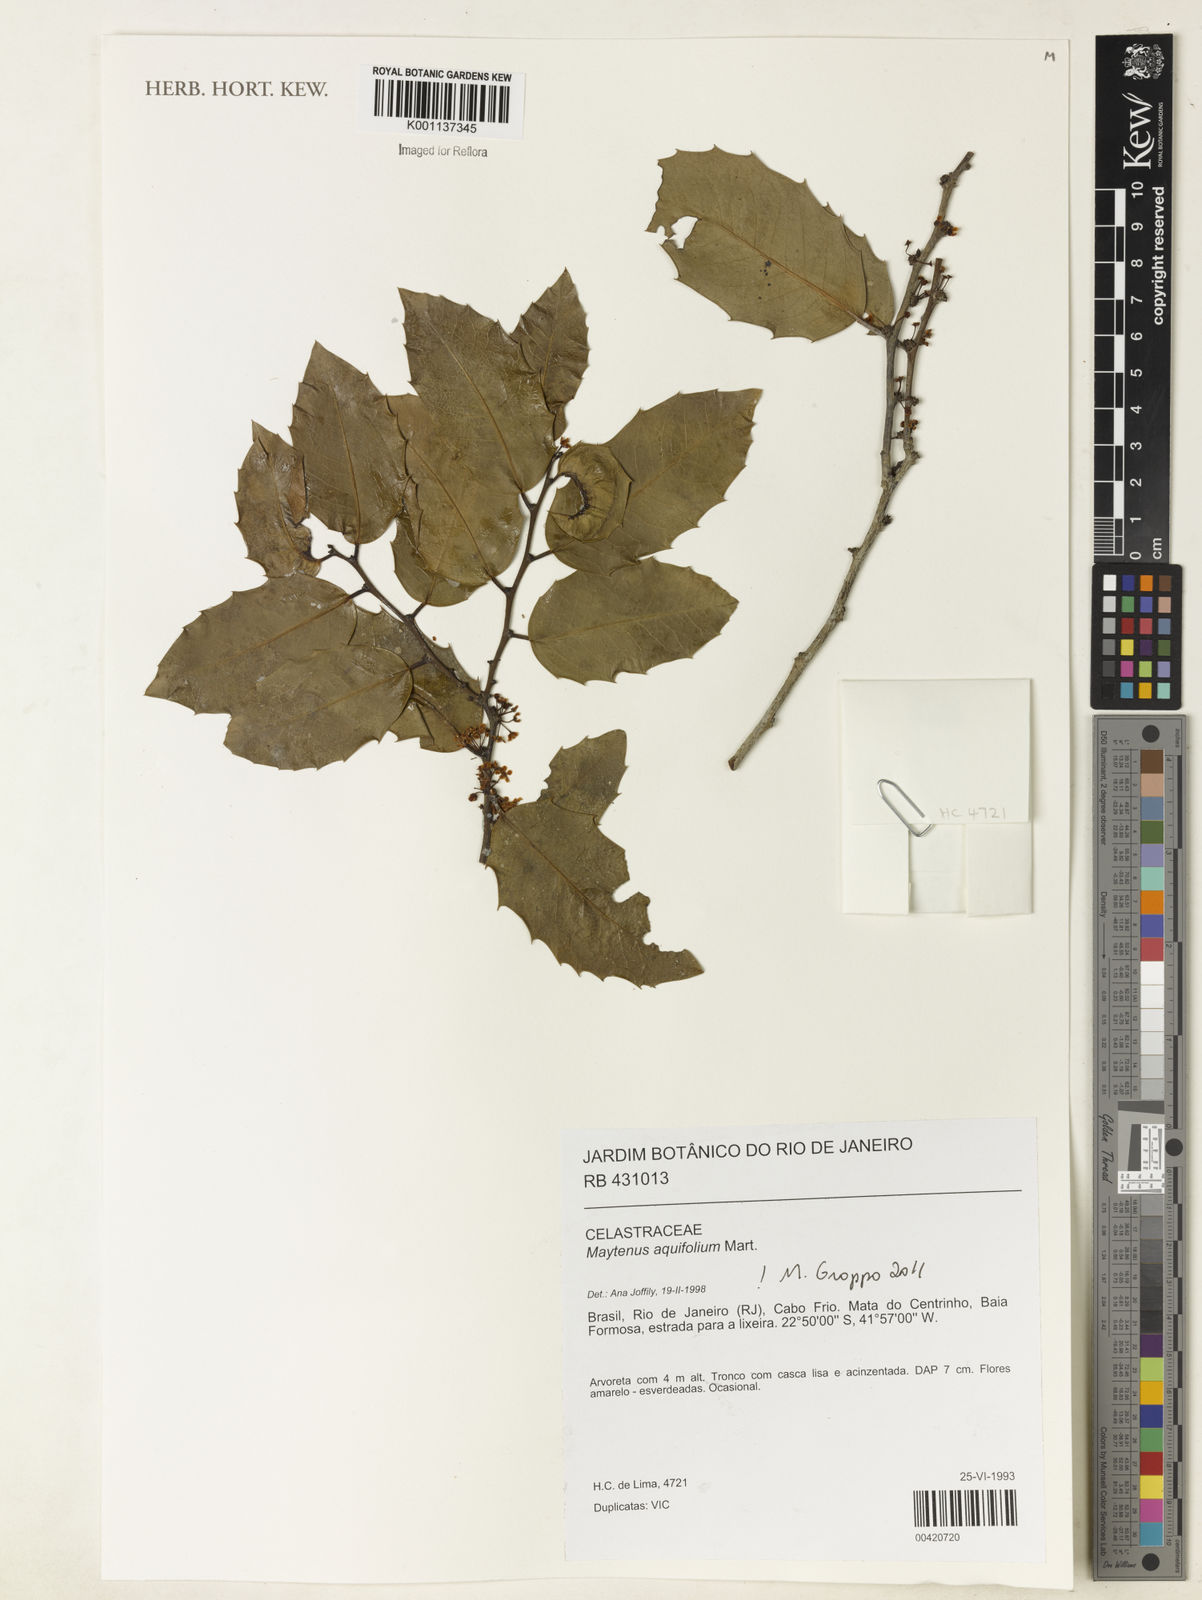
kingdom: Plantae
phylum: Tracheophyta
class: Magnoliopsida
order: Celastrales
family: Celastraceae
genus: Monteverdia
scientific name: Monteverdia aquifolium
